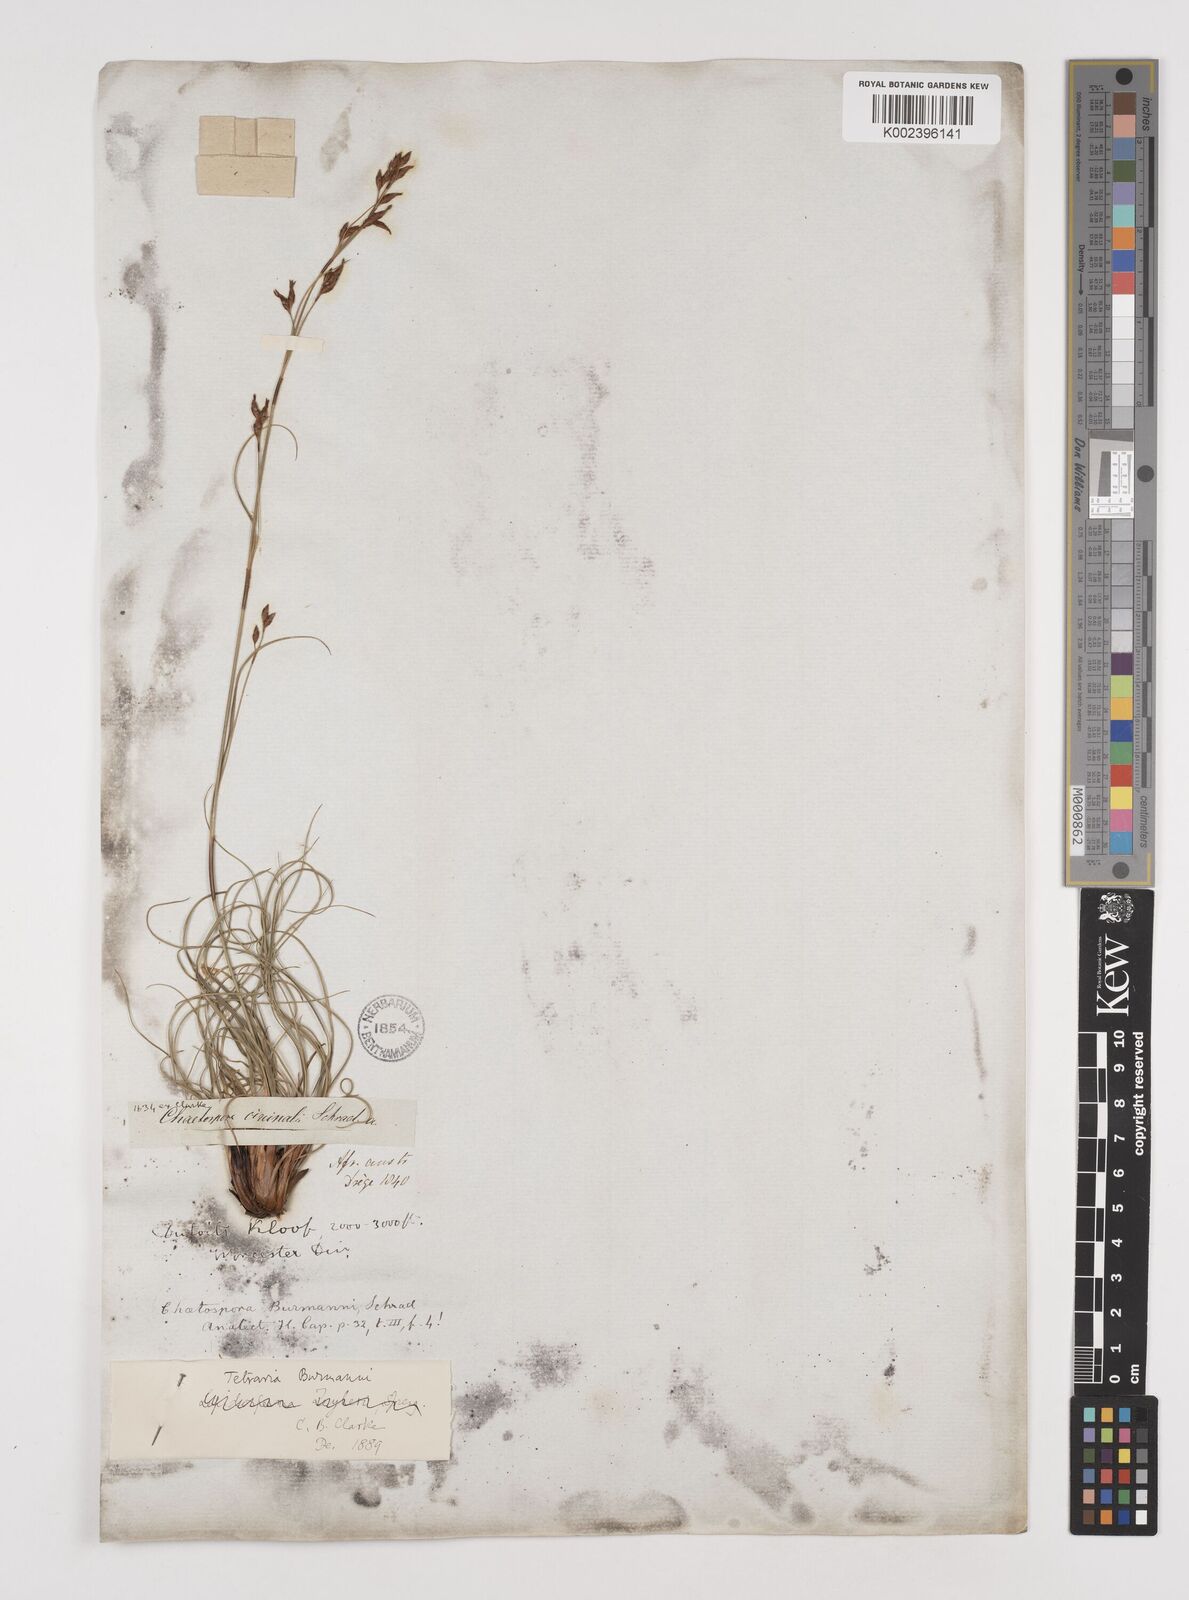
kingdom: Plantae
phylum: Tracheophyta
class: Liliopsida
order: Poales
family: Cyperaceae
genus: Tetraria
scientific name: Tetraria burmanni
